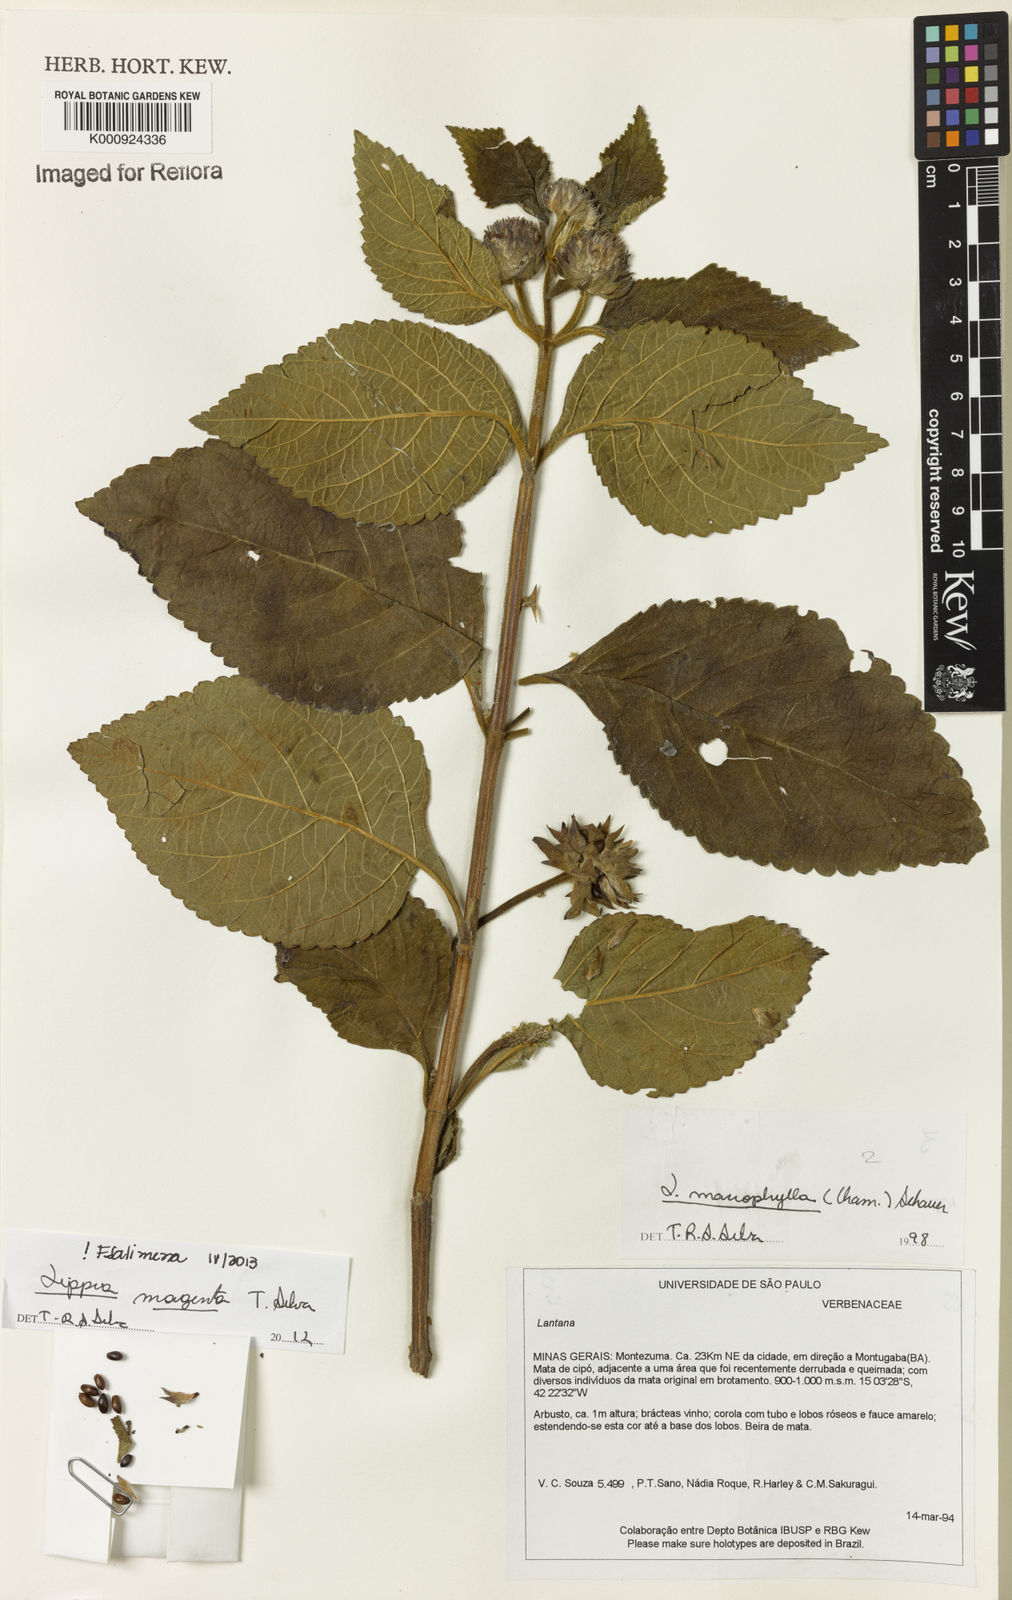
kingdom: Plantae
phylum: Tracheophyta
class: Magnoliopsida
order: Lamiales
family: Verbenaceae
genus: Lippia
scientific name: Lippia magentea
